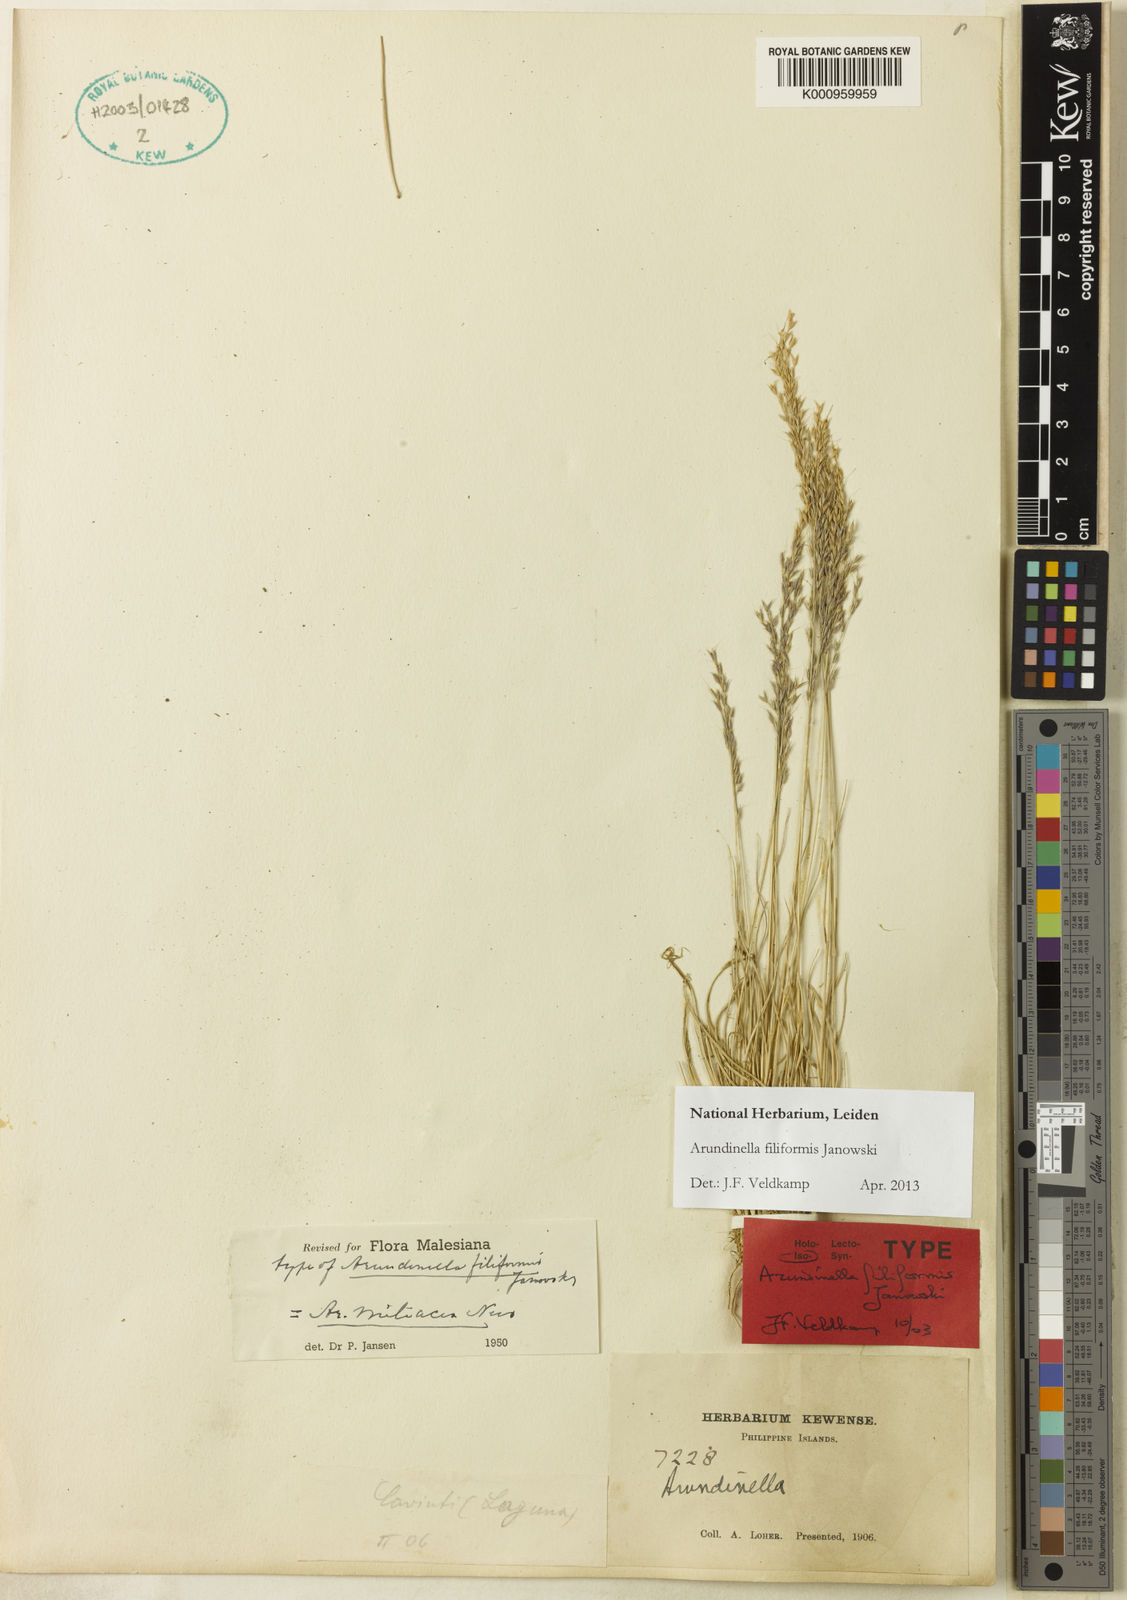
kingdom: Plantae
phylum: Tracheophyta
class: Liliopsida
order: Poales
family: Poaceae
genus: Arundinella
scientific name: Arundinella holcoides
